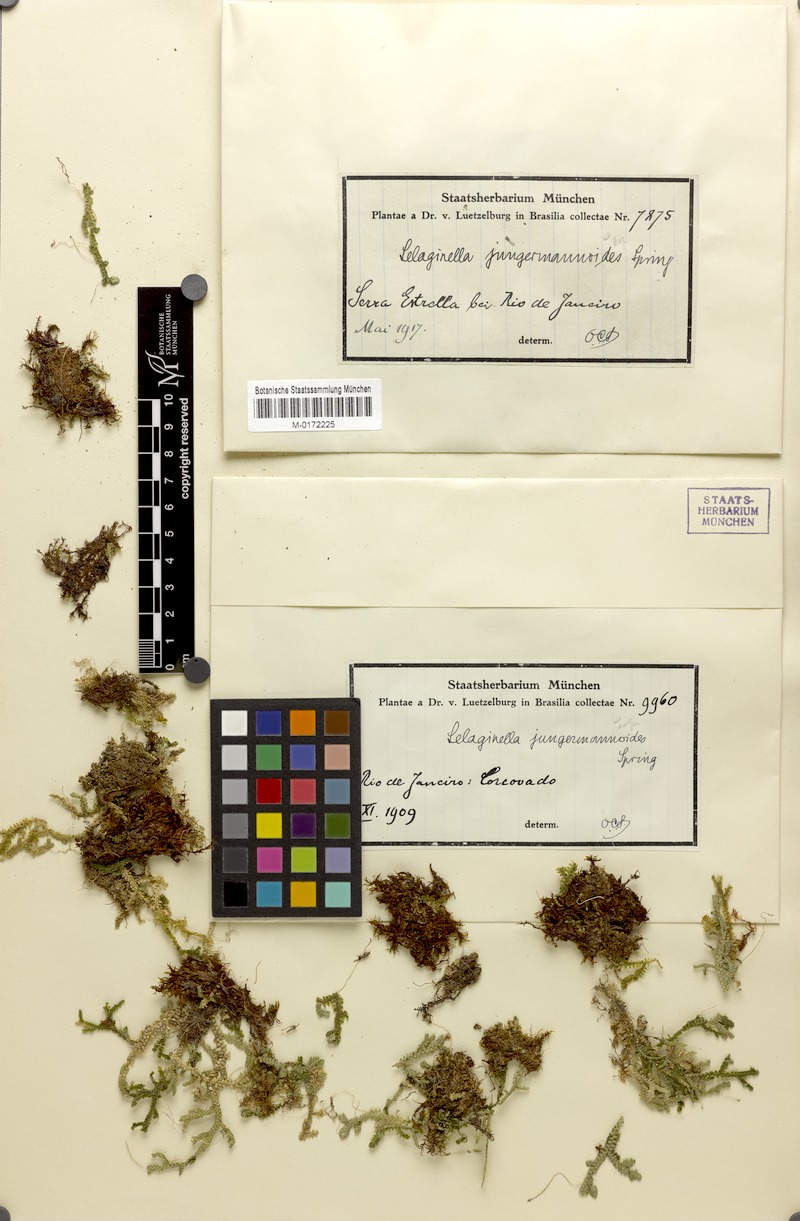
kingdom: Plantae
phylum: Tracheophyta
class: Lycopodiopsida
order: Selaginellales
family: Selaginellaceae
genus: Selaginella
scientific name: Selaginella jungermannioides
